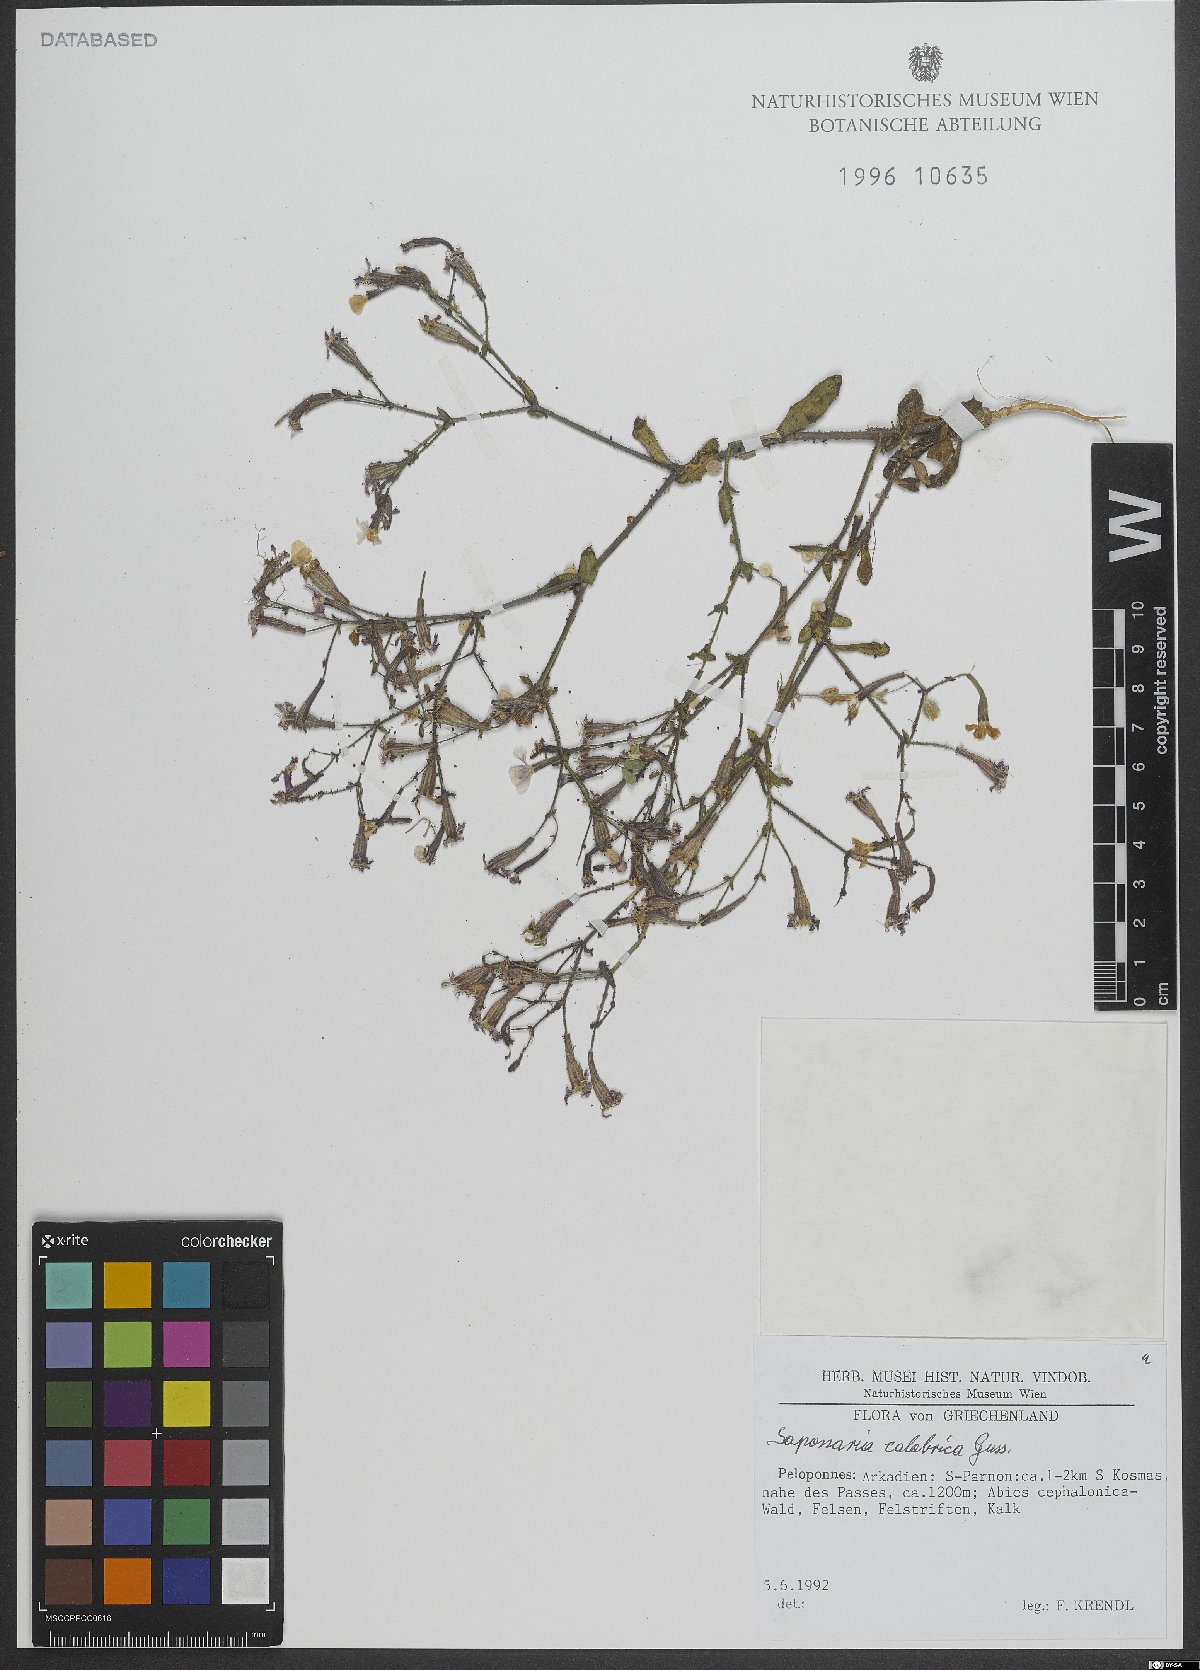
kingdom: Plantae
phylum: Tracheophyta
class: Magnoliopsida
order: Caryophyllales
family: Caryophyllaceae
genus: Saponaria
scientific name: Saponaria calabrica
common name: Adriatic soapwort
